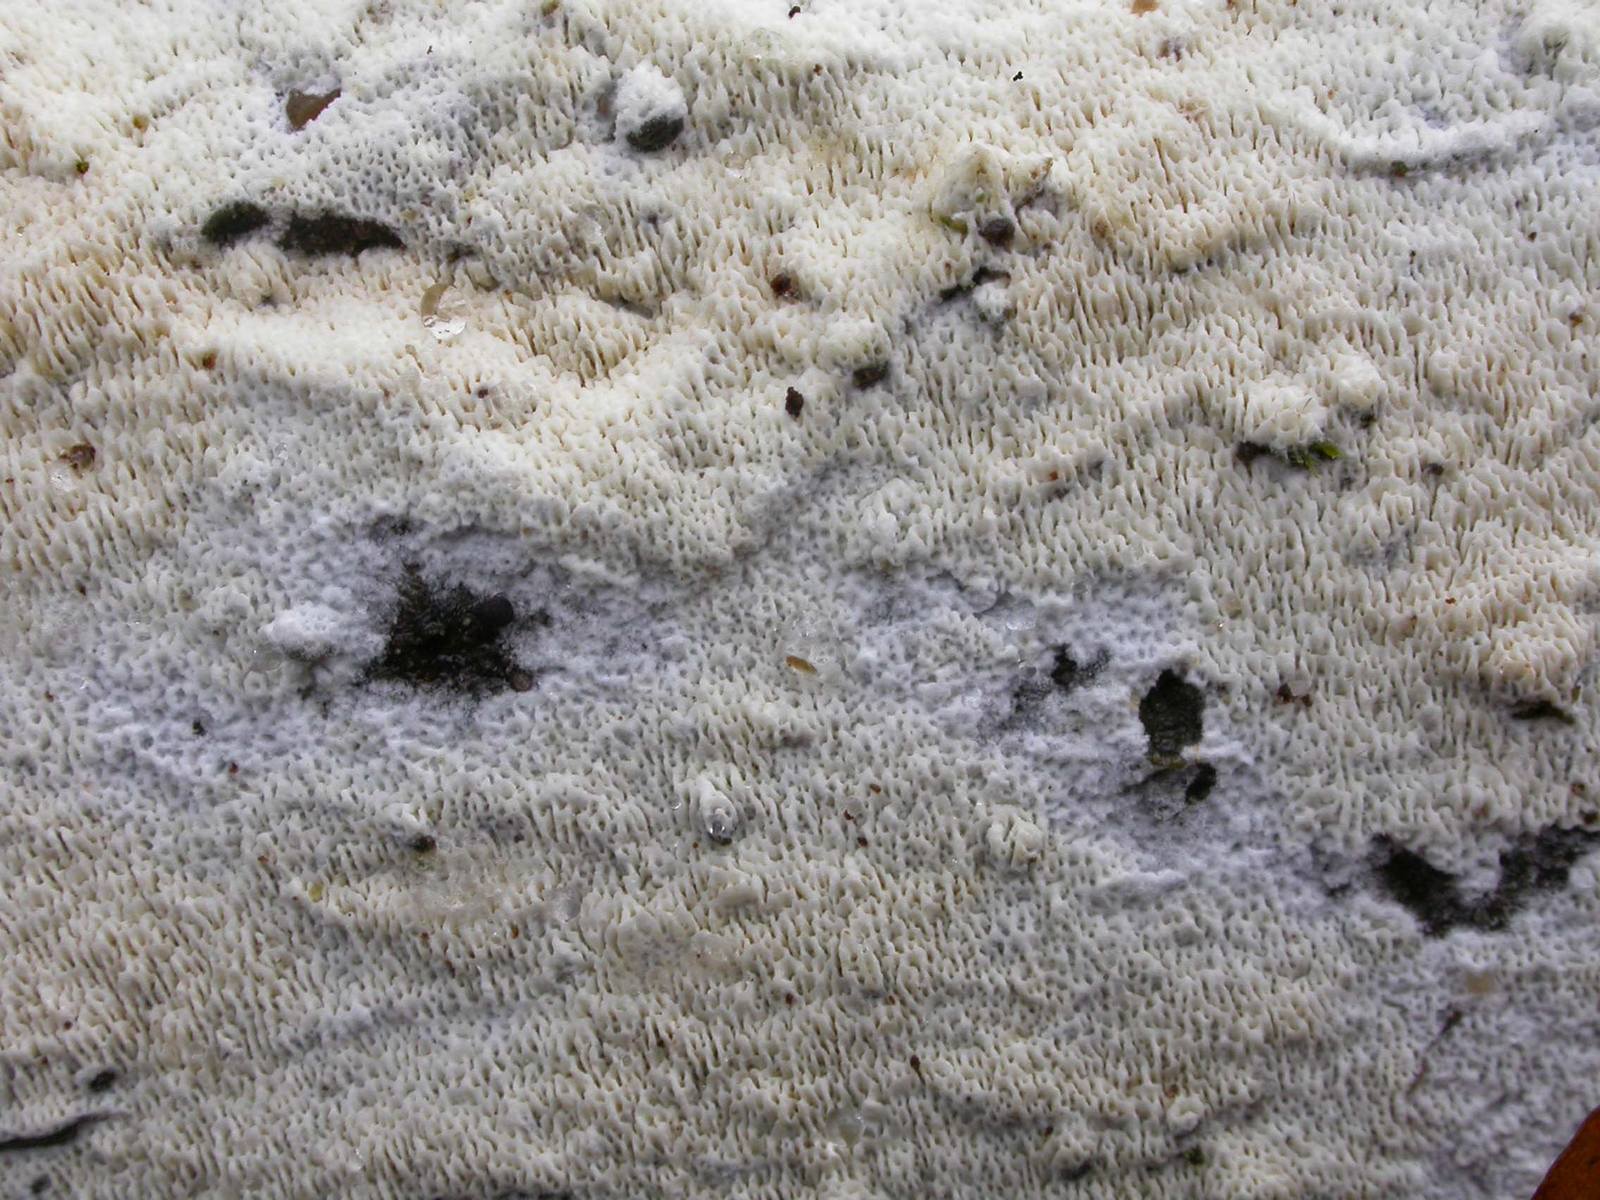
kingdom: Fungi
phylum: Basidiomycota
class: Agaricomycetes
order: Atheliales
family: Atheliaceae
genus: Athelia
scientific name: Athelia epiphylla
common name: almindelig barkhinde
